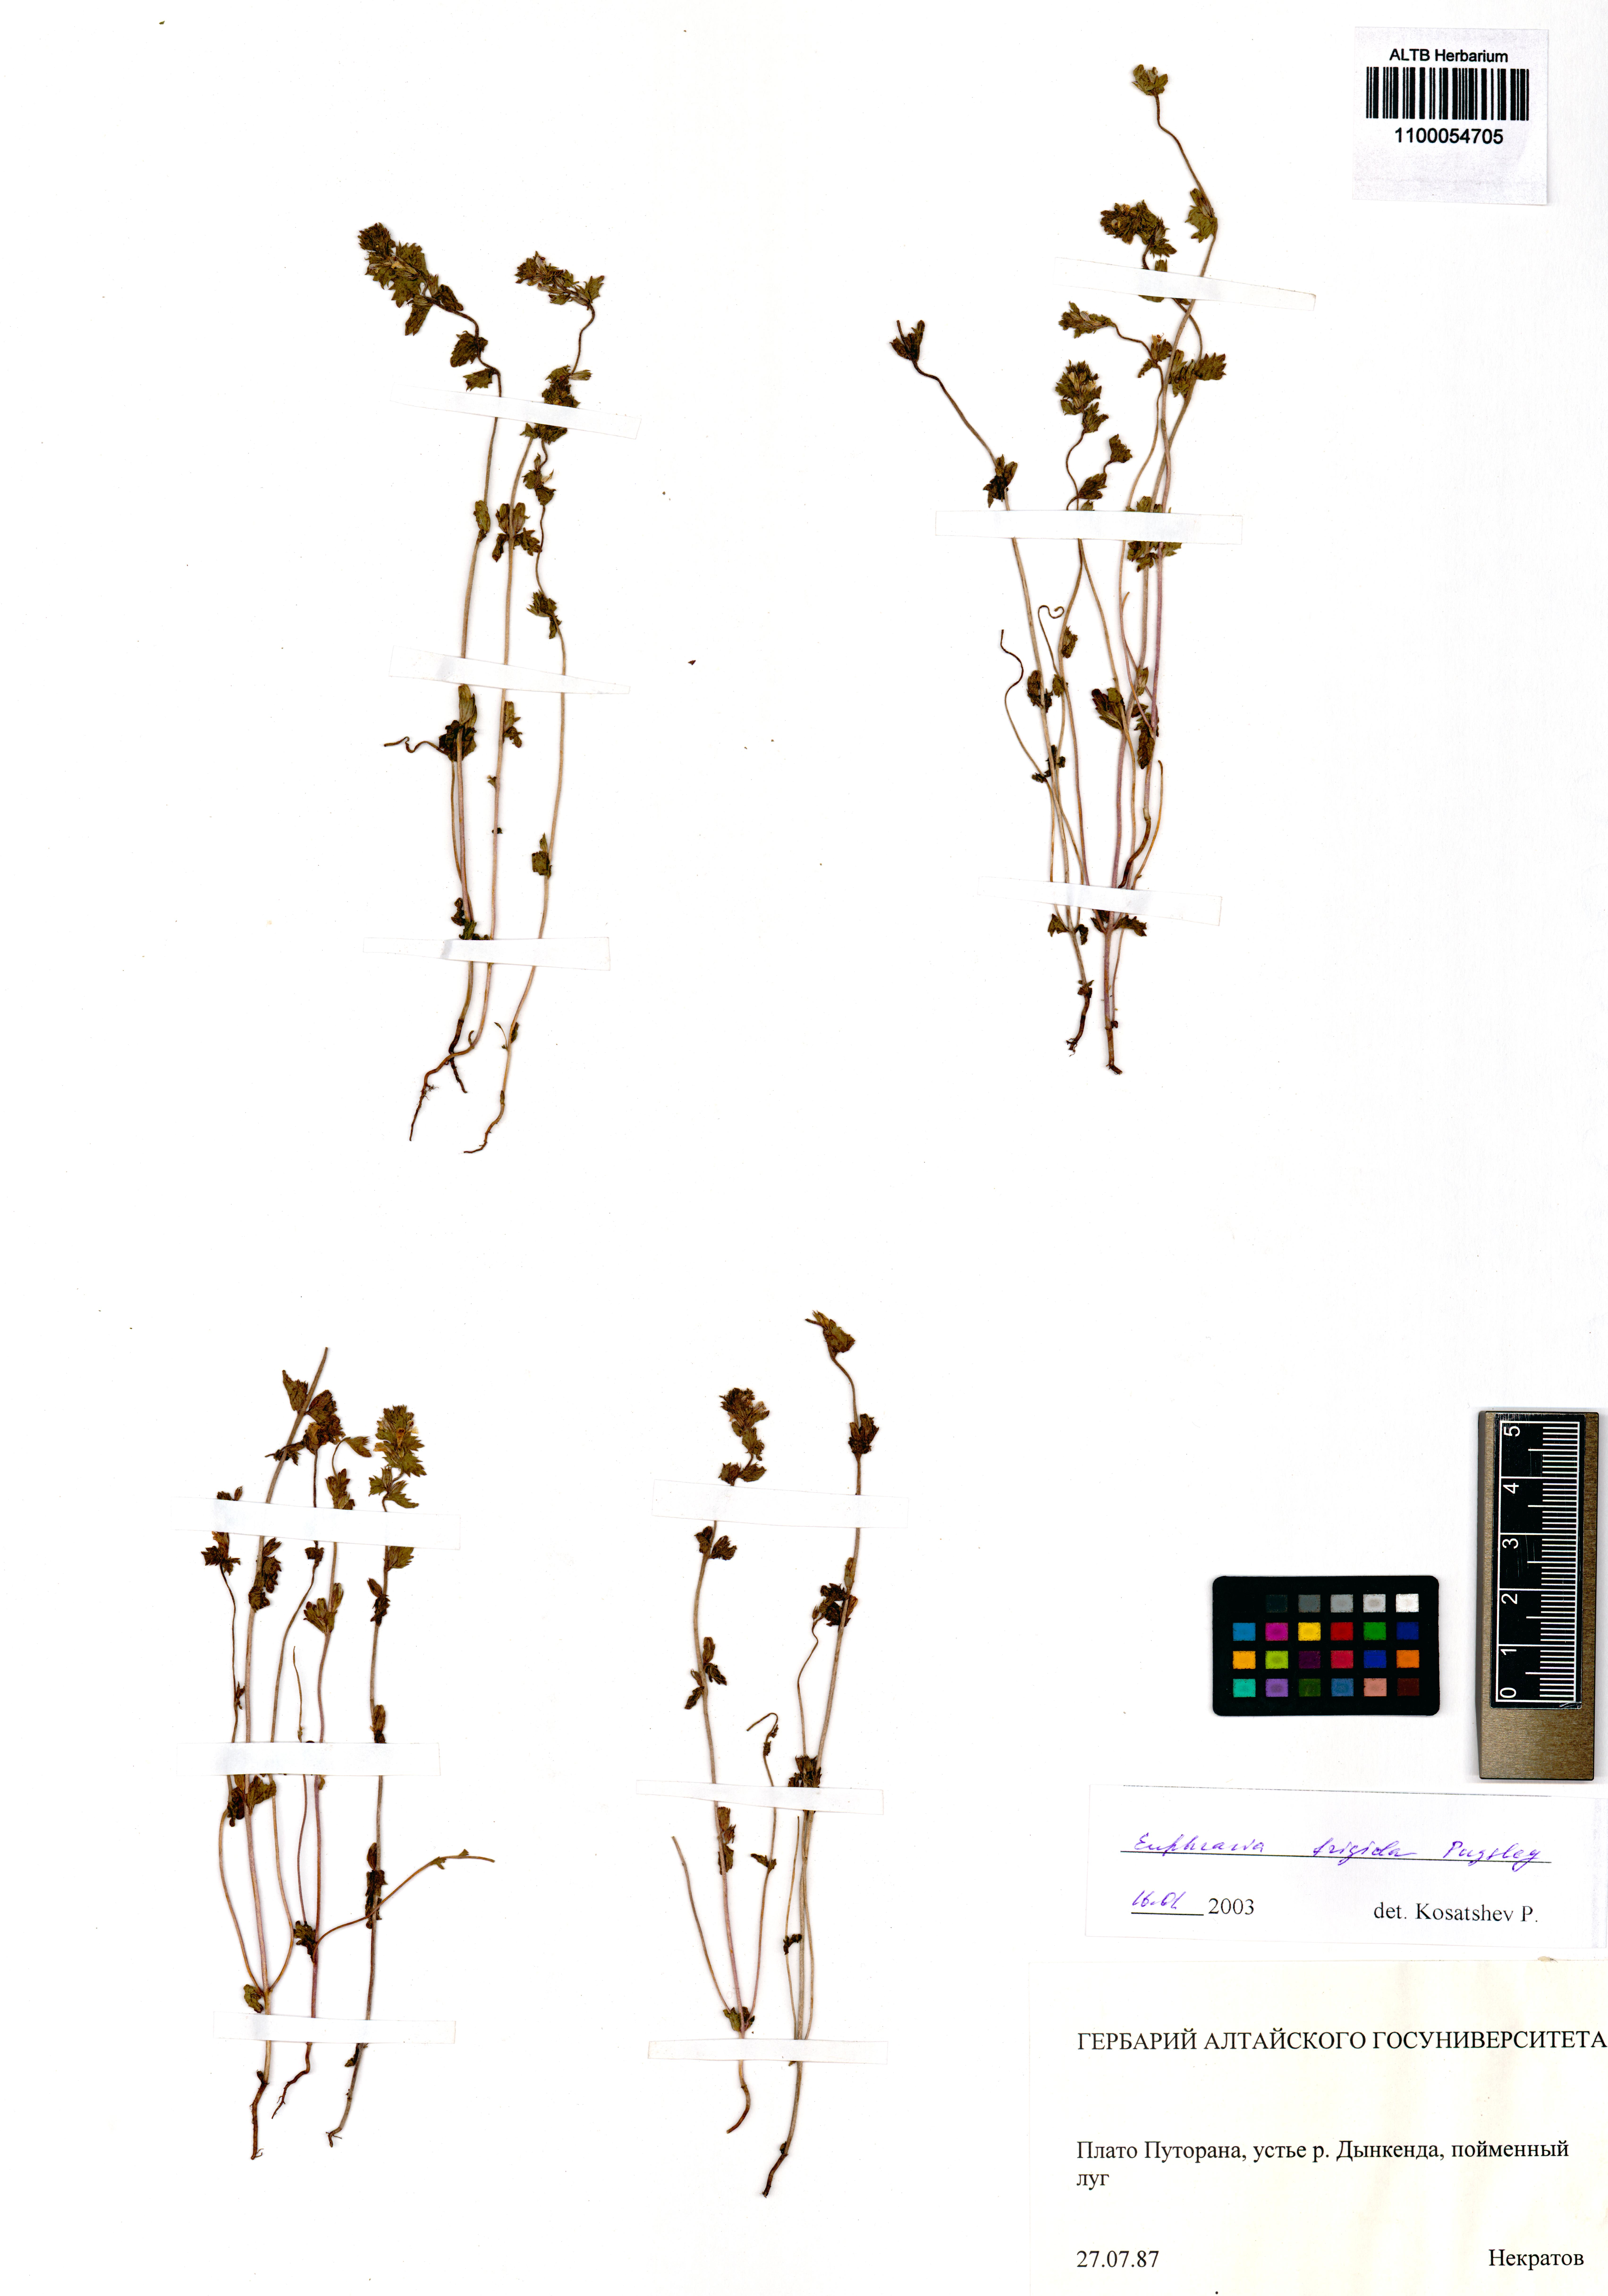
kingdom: Plantae
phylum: Tracheophyta
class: Magnoliopsida
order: Lamiales
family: Orobanchaceae
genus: Euphrasia
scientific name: Euphrasia frigida
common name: An eyebright
